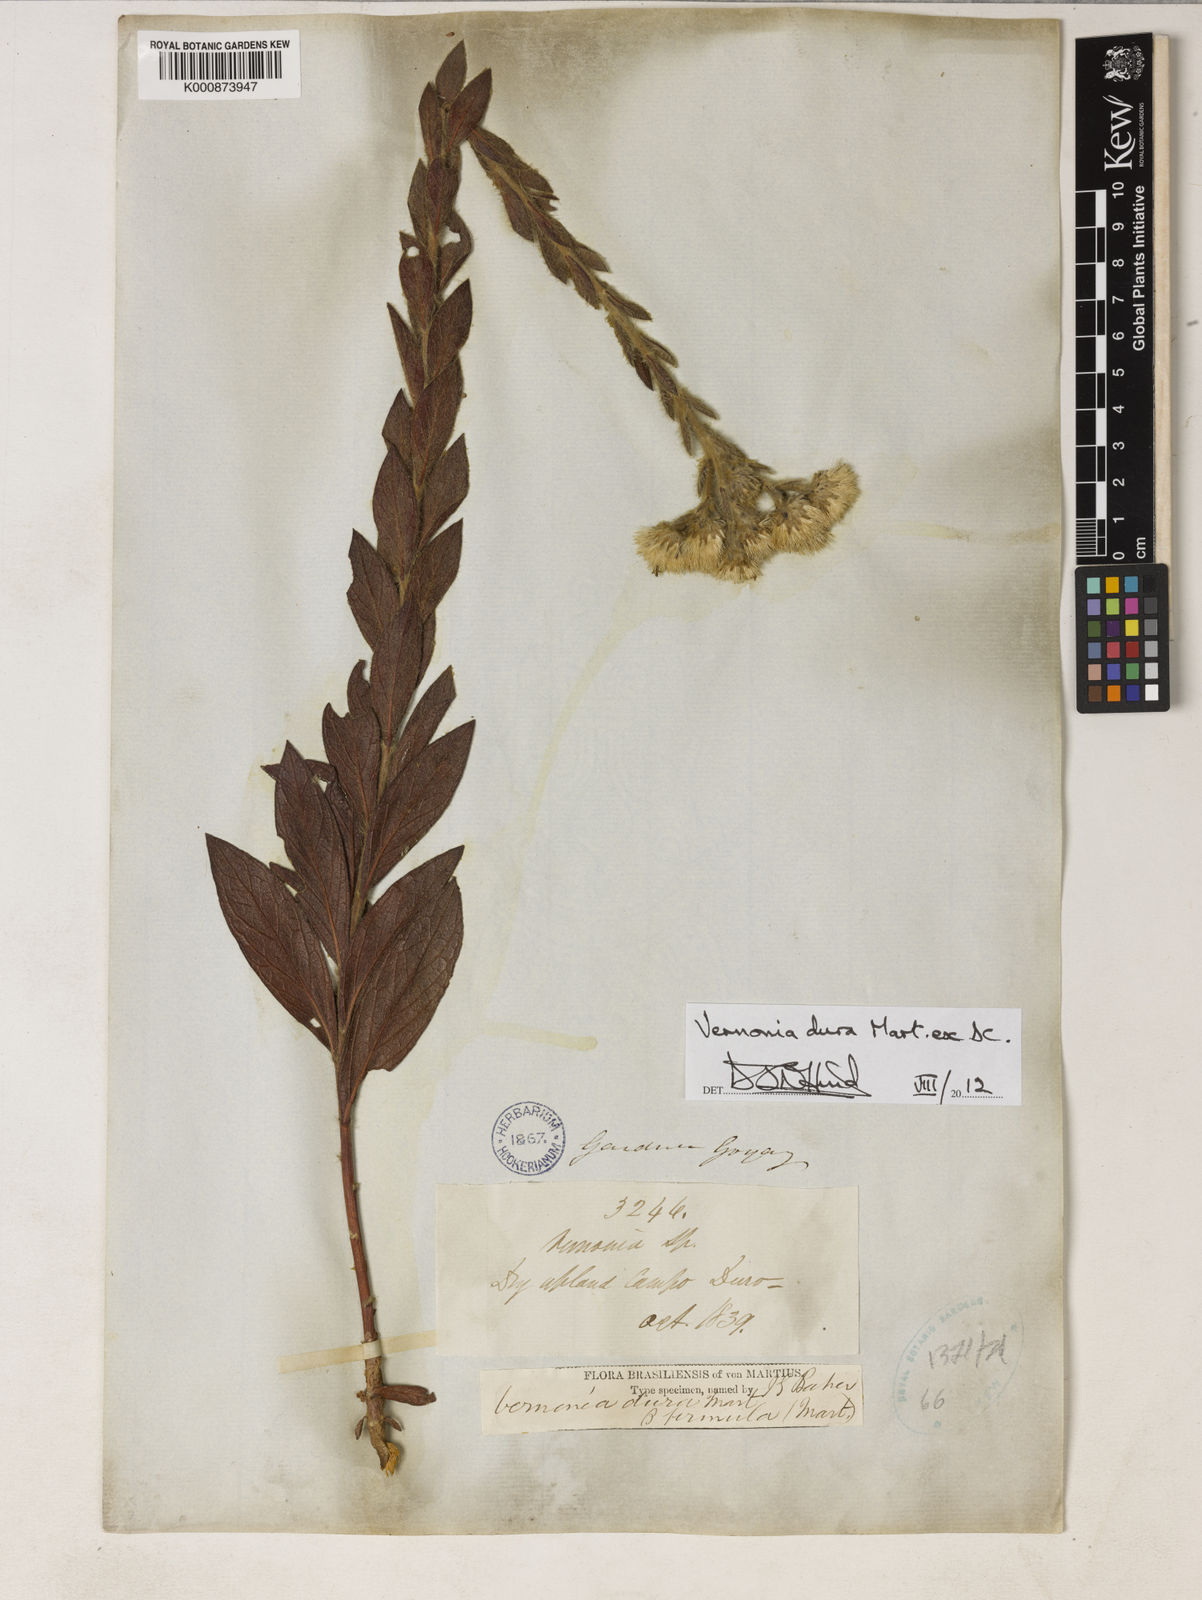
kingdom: Plantae
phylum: Tracheophyta
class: Magnoliopsida
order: Asterales
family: Asteraceae
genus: Lessingianthus
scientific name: Lessingianthus durus
